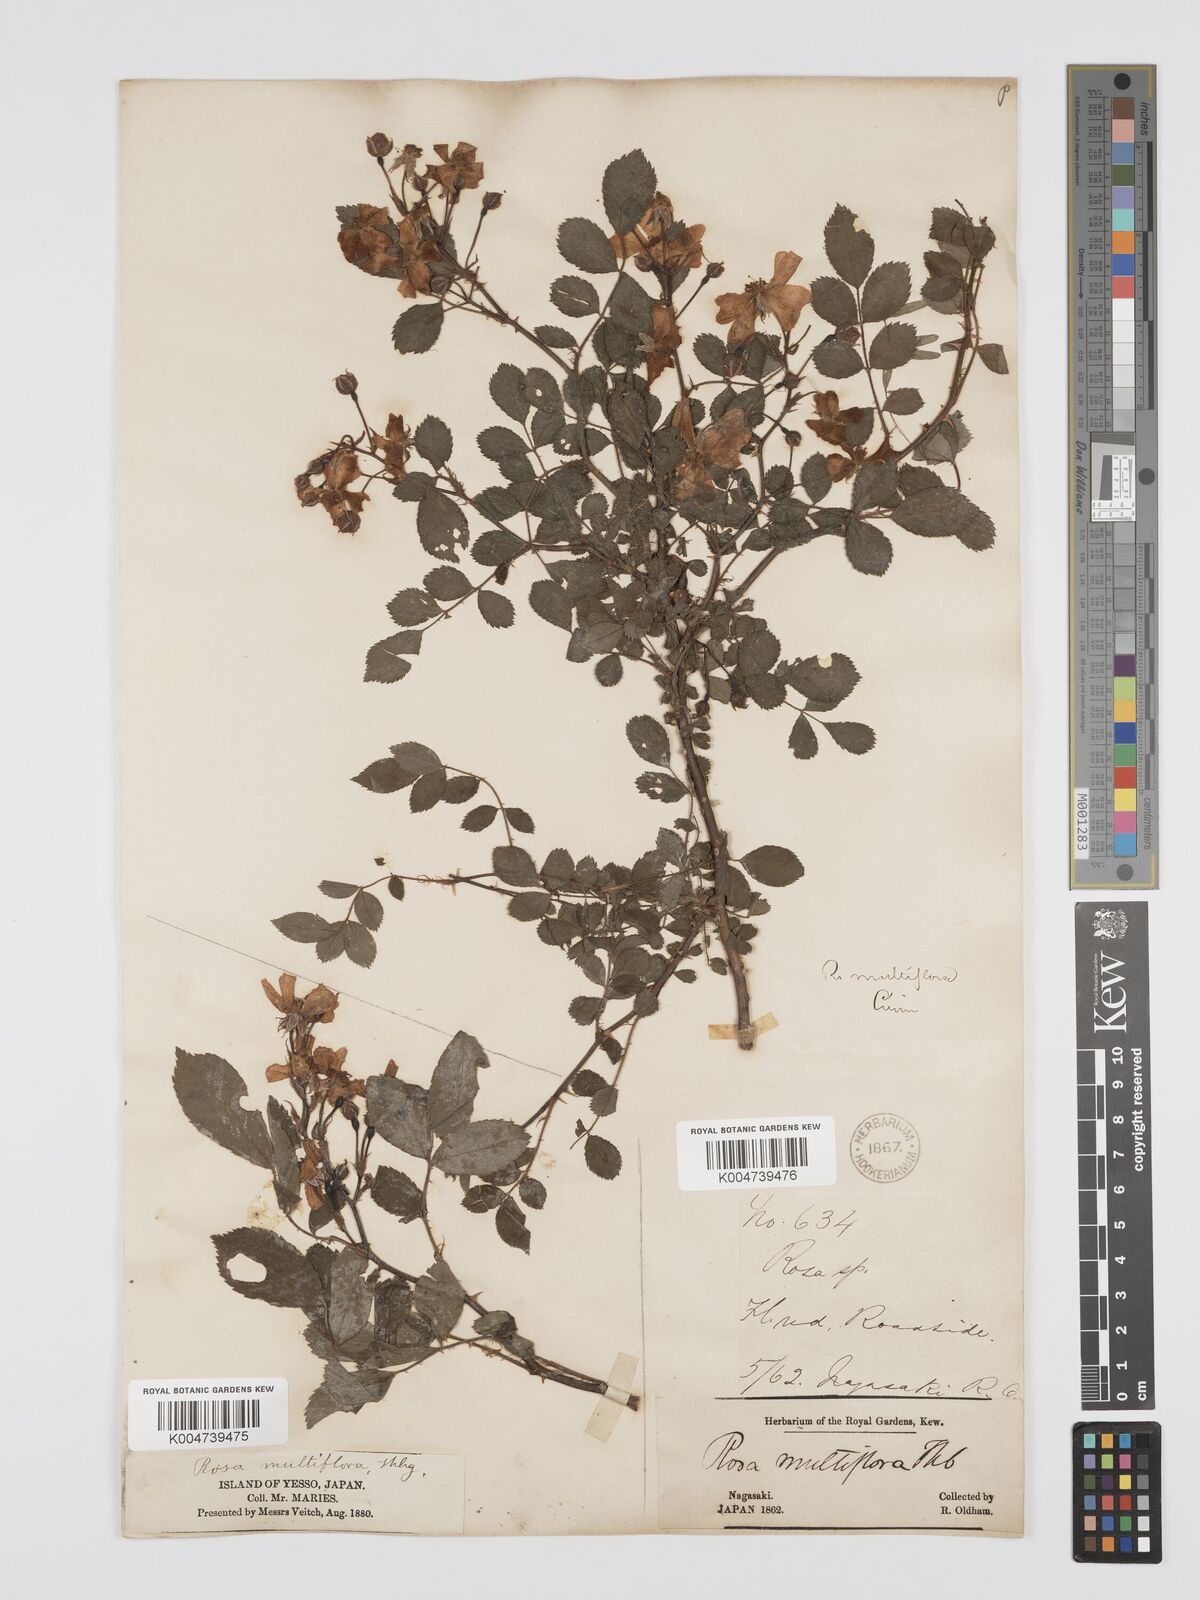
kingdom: Plantae
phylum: Tracheophyta
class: Magnoliopsida
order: Rosales
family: Rosaceae
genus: Rosa
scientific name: Rosa
